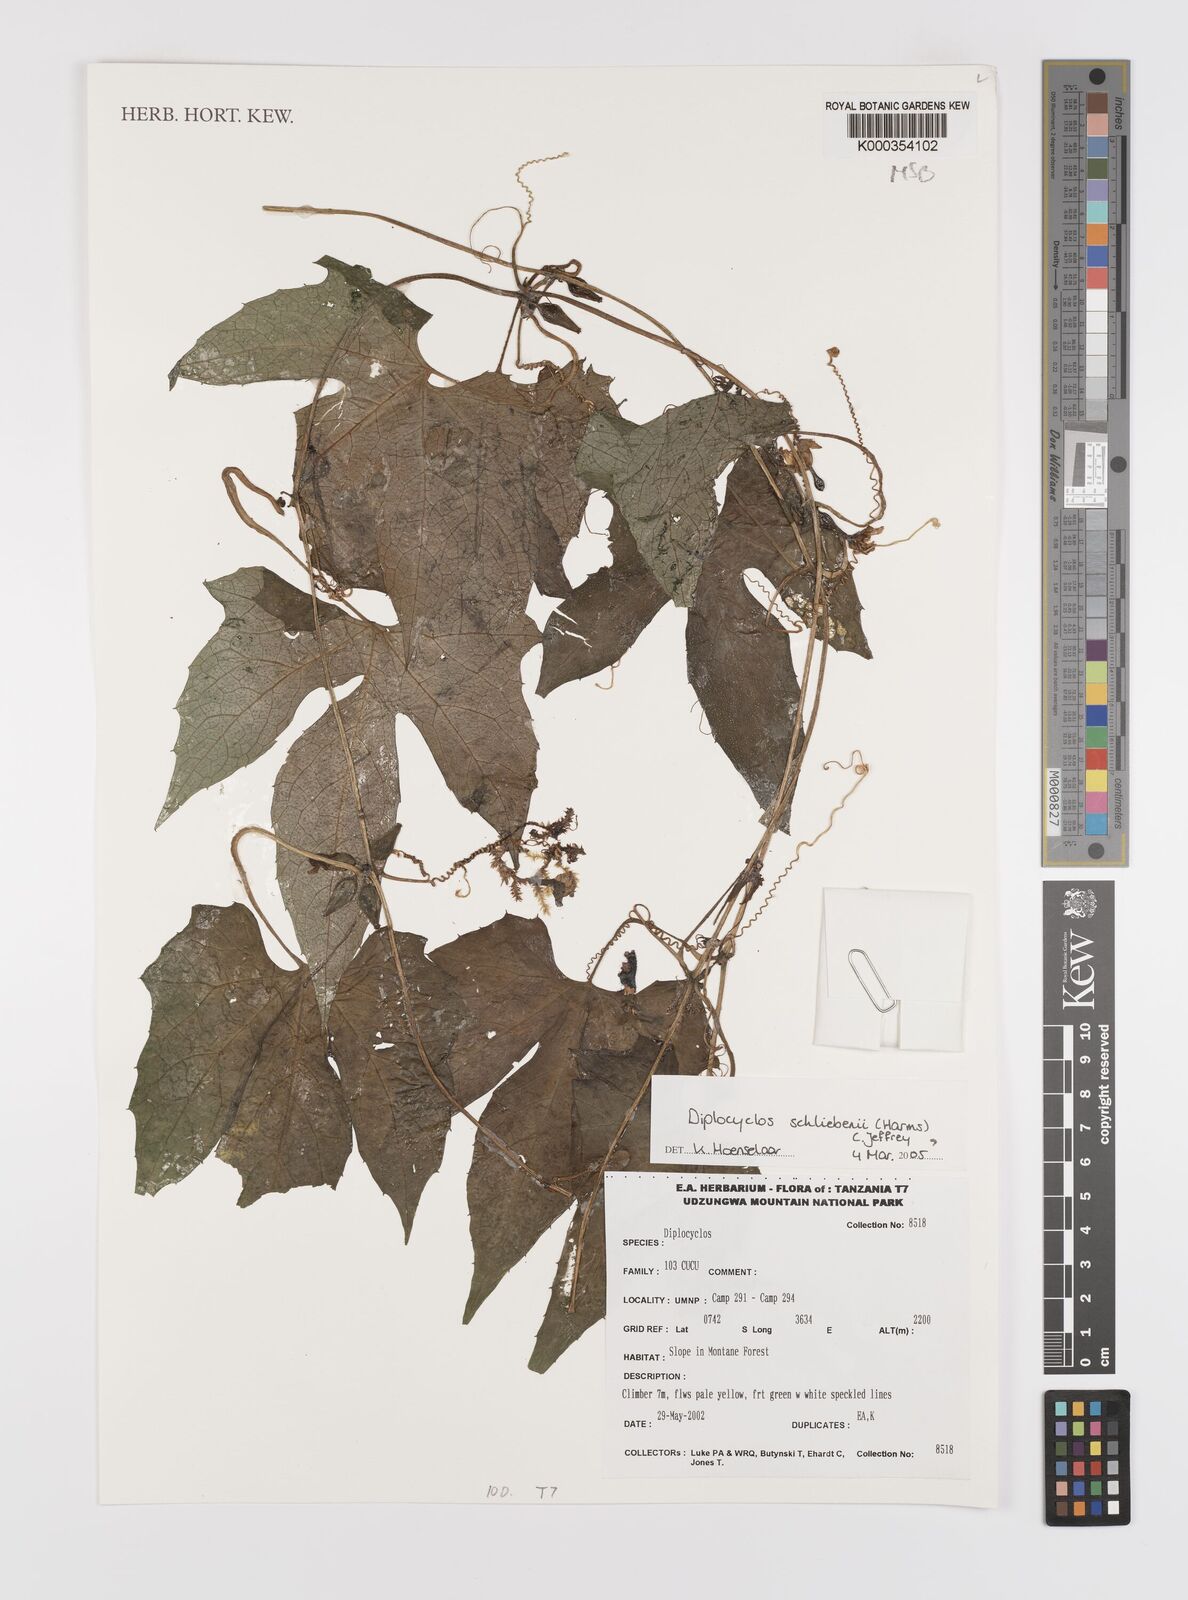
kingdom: Plantae
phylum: Tracheophyta
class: Magnoliopsida
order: Cucurbitales
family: Cucurbitaceae
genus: Diplocyclos
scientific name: Diplocyclos schliebenii
